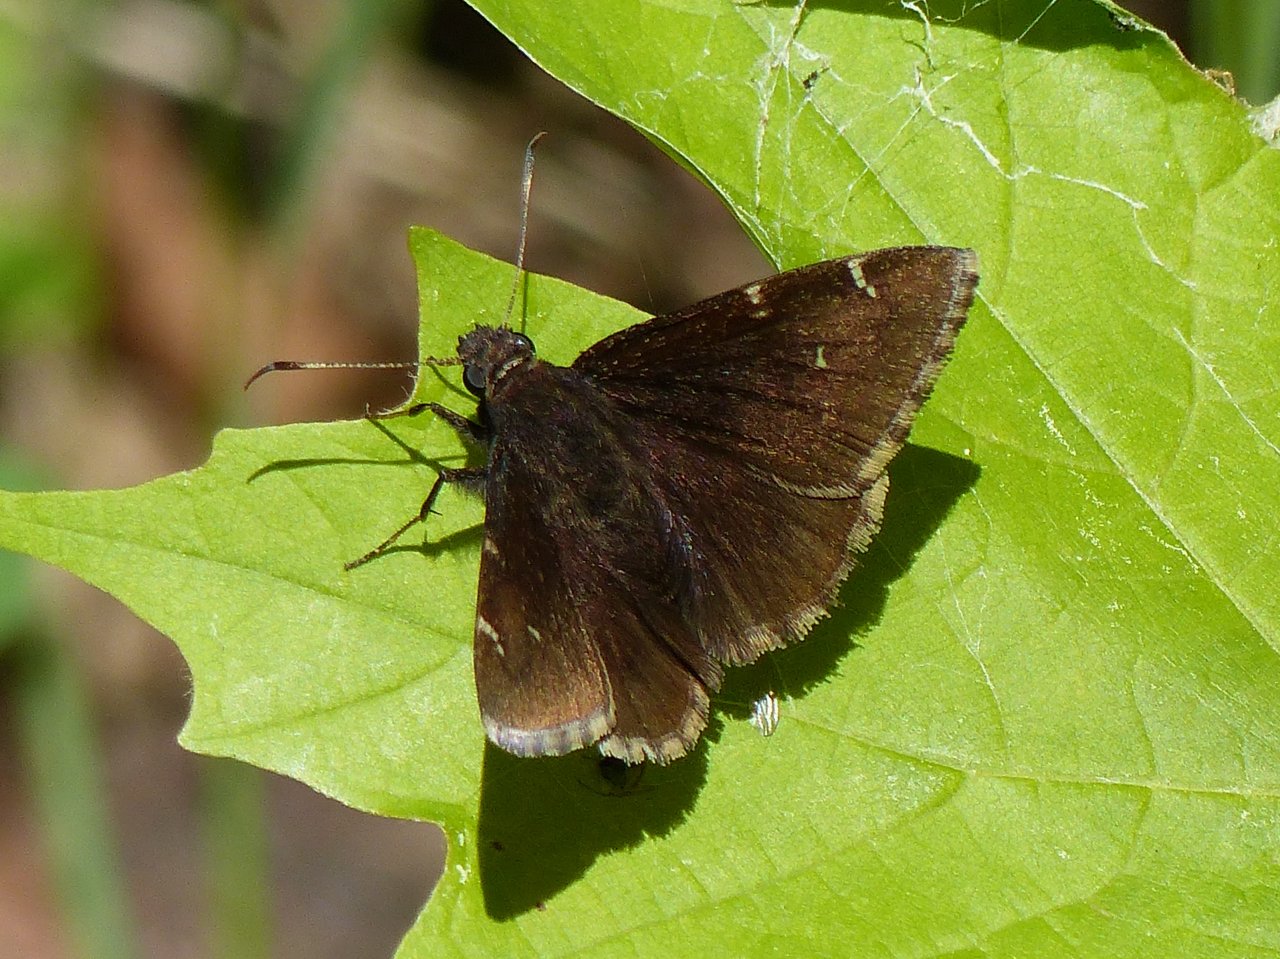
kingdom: Animalia
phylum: Arthropoda
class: Insecta
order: Lepidoptera
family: Hesperiidae
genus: Autochton
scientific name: Autochton
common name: Northern Cloudywing
